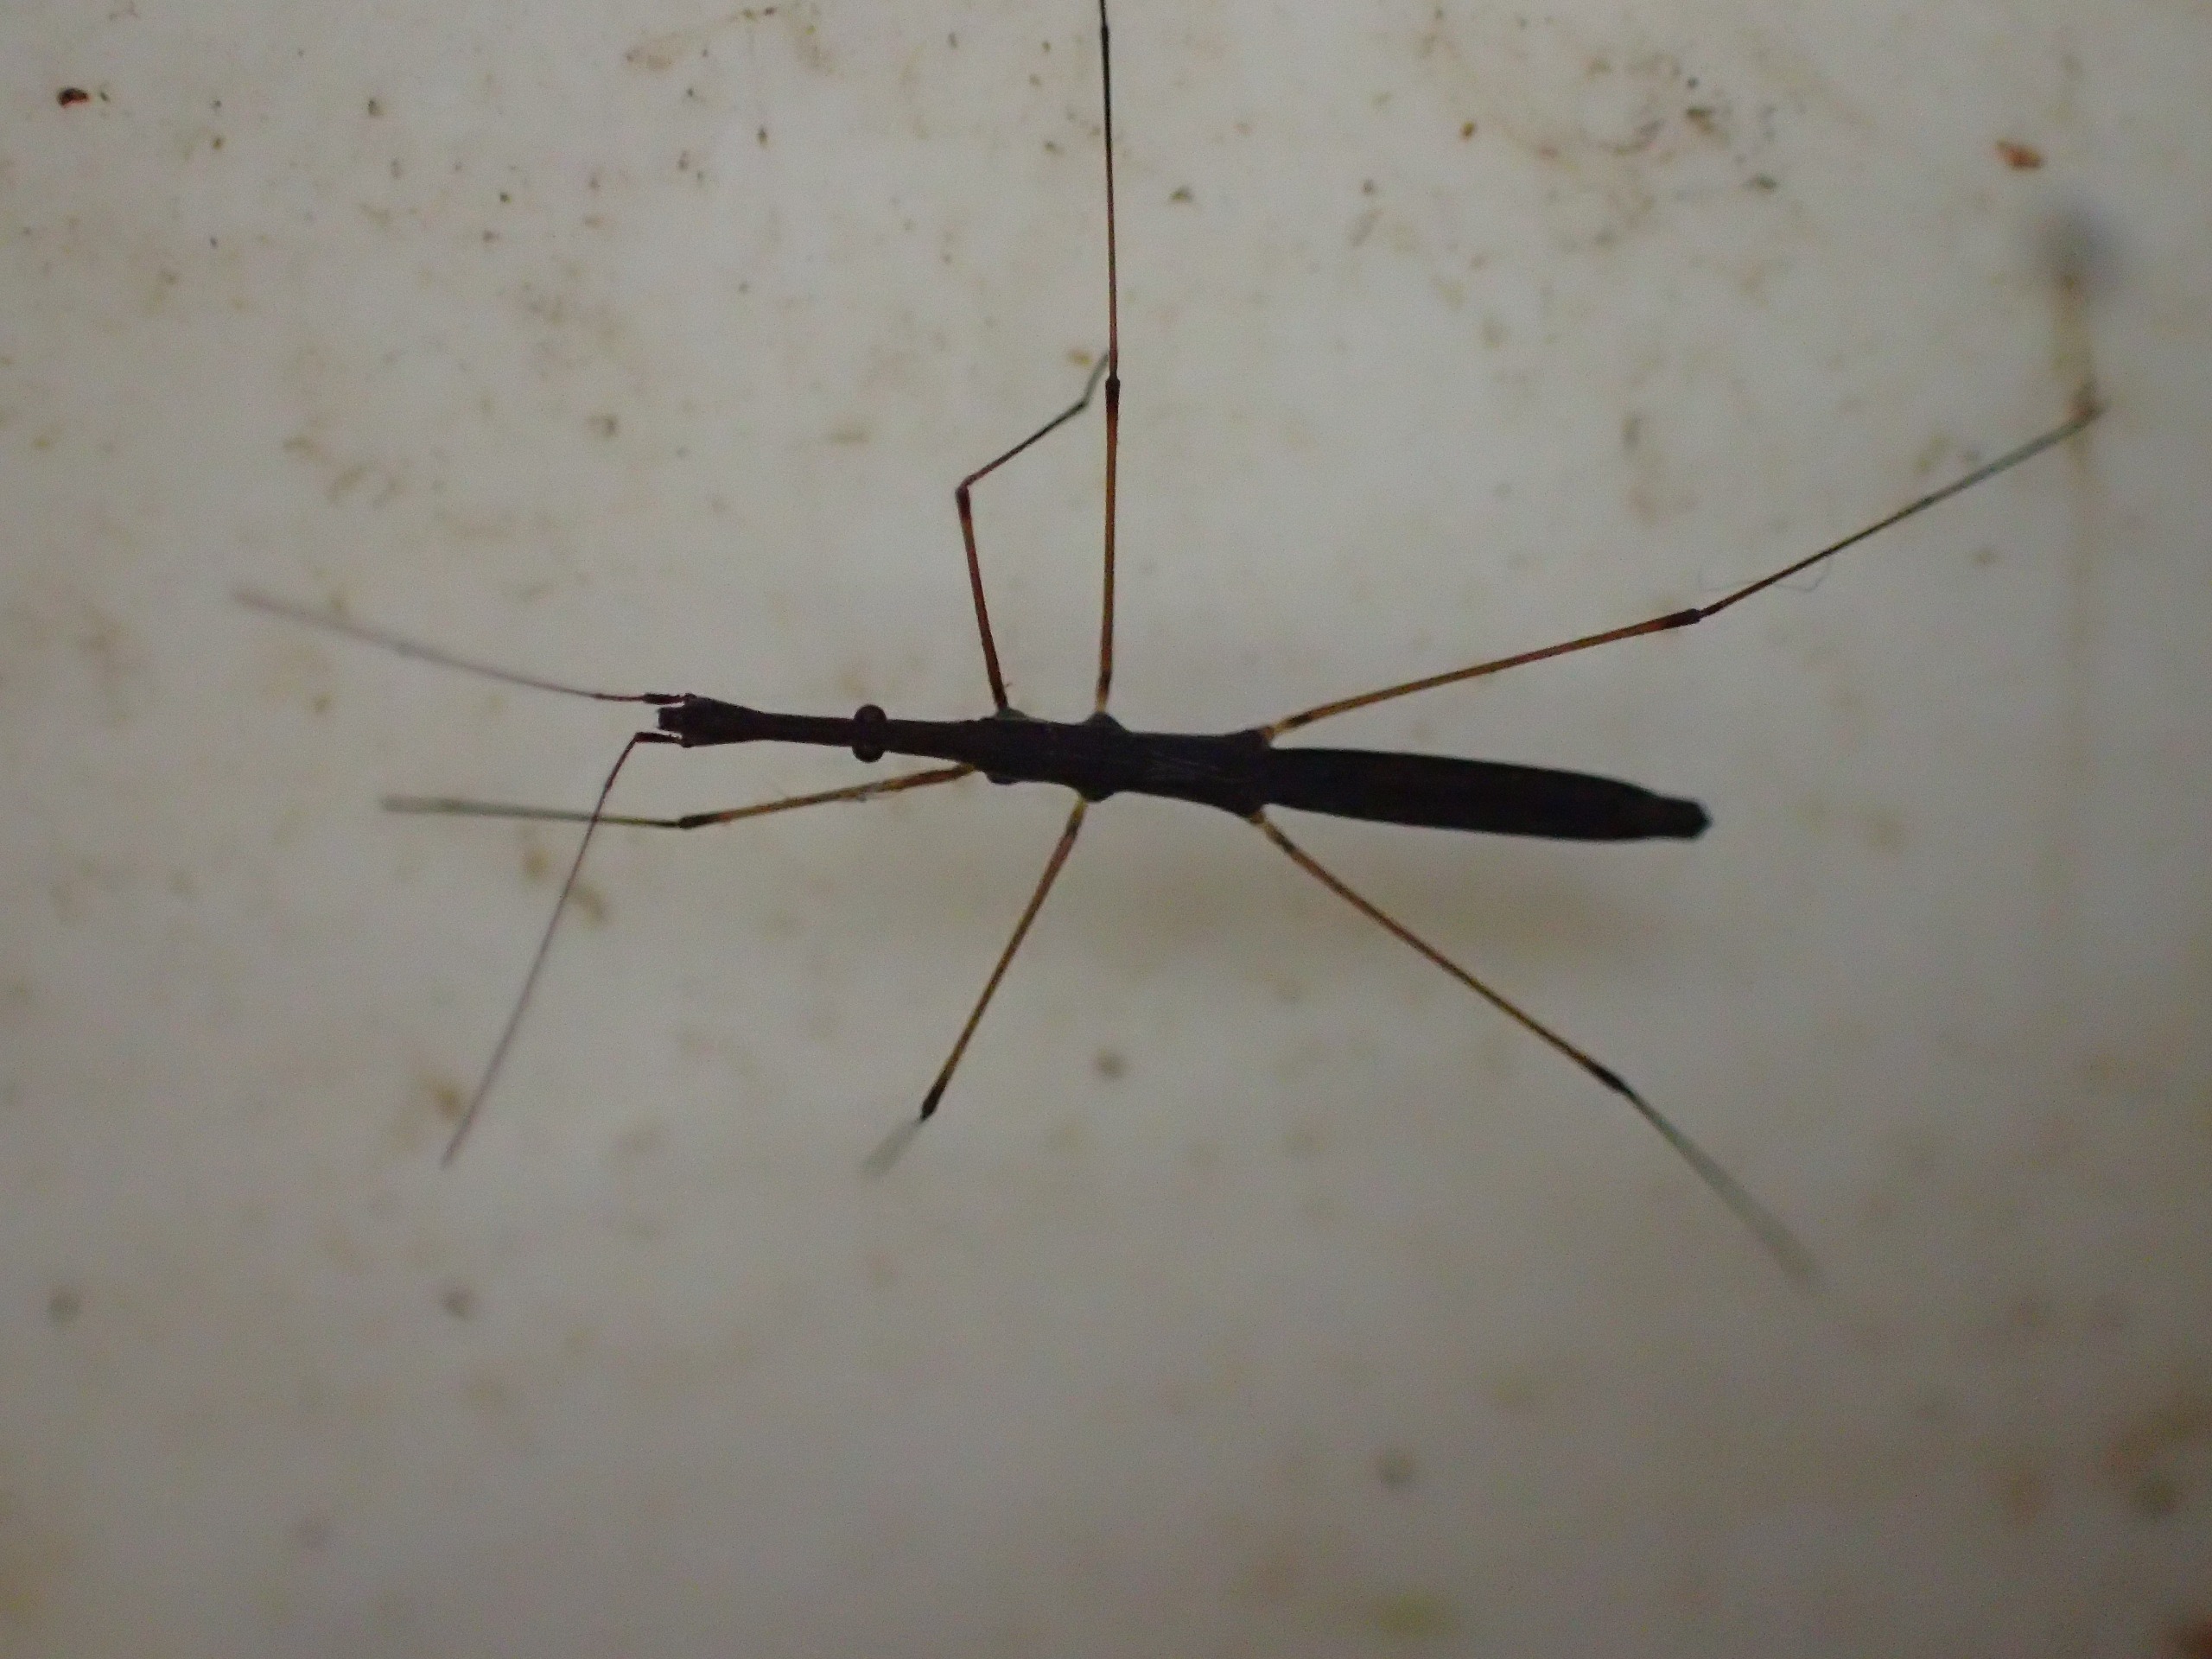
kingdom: Animalia
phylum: Arthropoda
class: Insecta
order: Hemiptera
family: Hydrometridae
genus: Hydrometra
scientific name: Hydrometra stagnorum
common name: Skrædder
